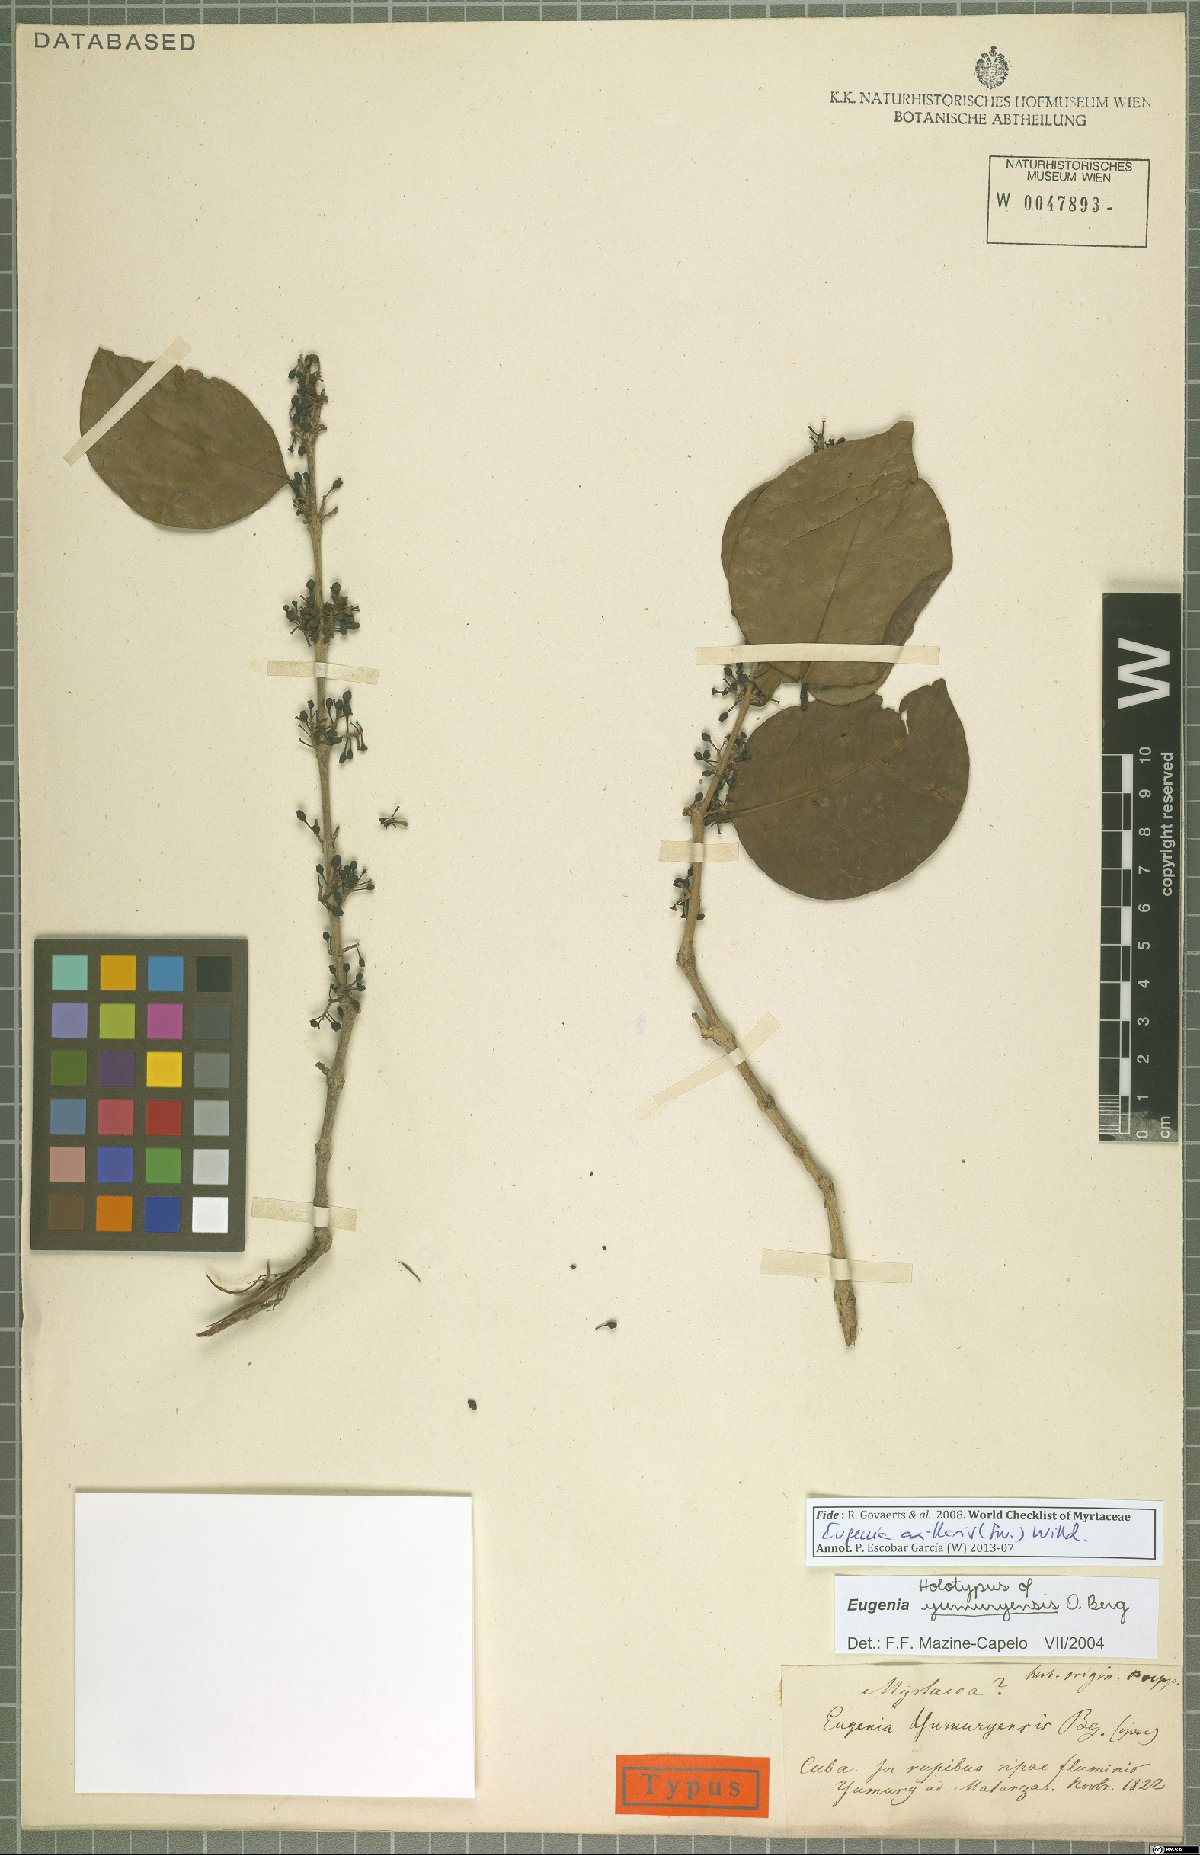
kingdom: Plantae
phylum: Tracheophyta
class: Magnoliopsida
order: Myrtales
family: Myrtaceae
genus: Eugenia
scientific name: Eugenia axillaris
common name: Choaky berry
